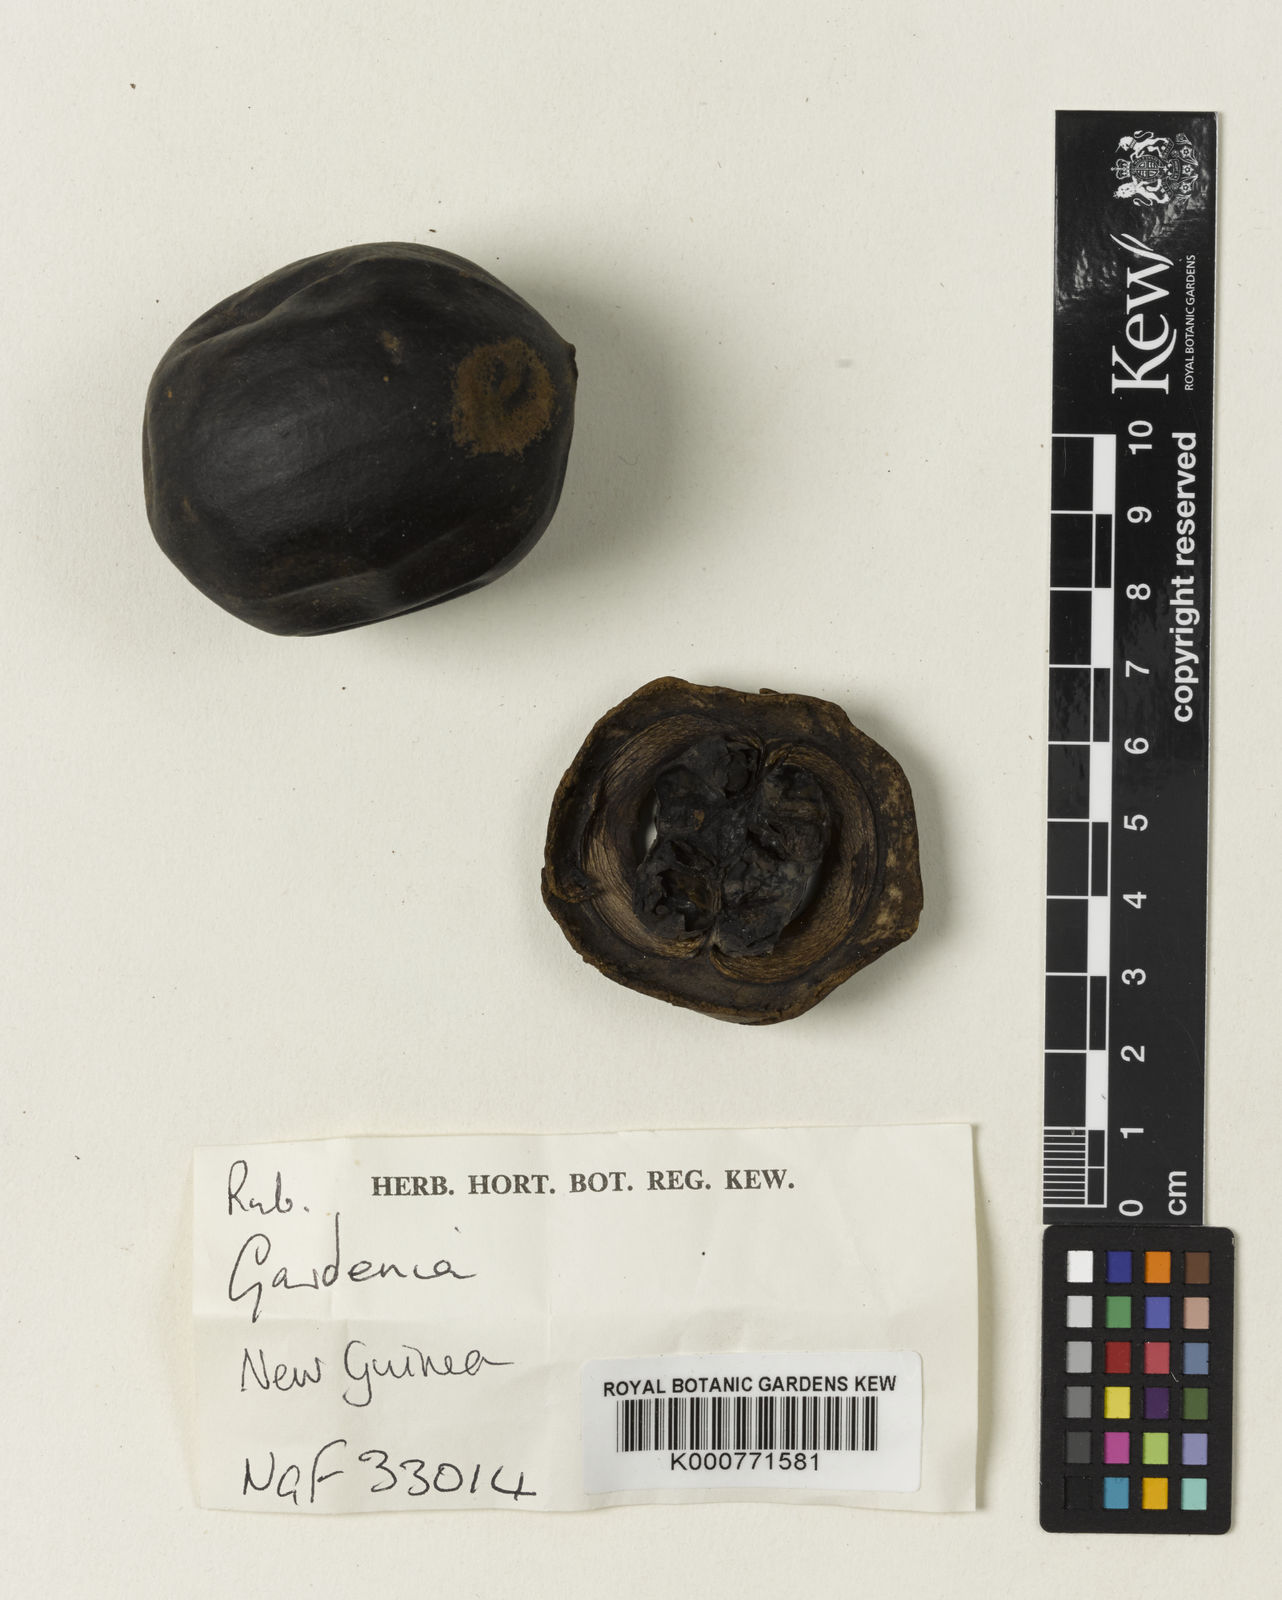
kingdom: Plantae
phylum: Tracheophyta
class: Magnoliopsida
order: Gentianales
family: Rubiaceae
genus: Gardenia
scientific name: Gardenia
